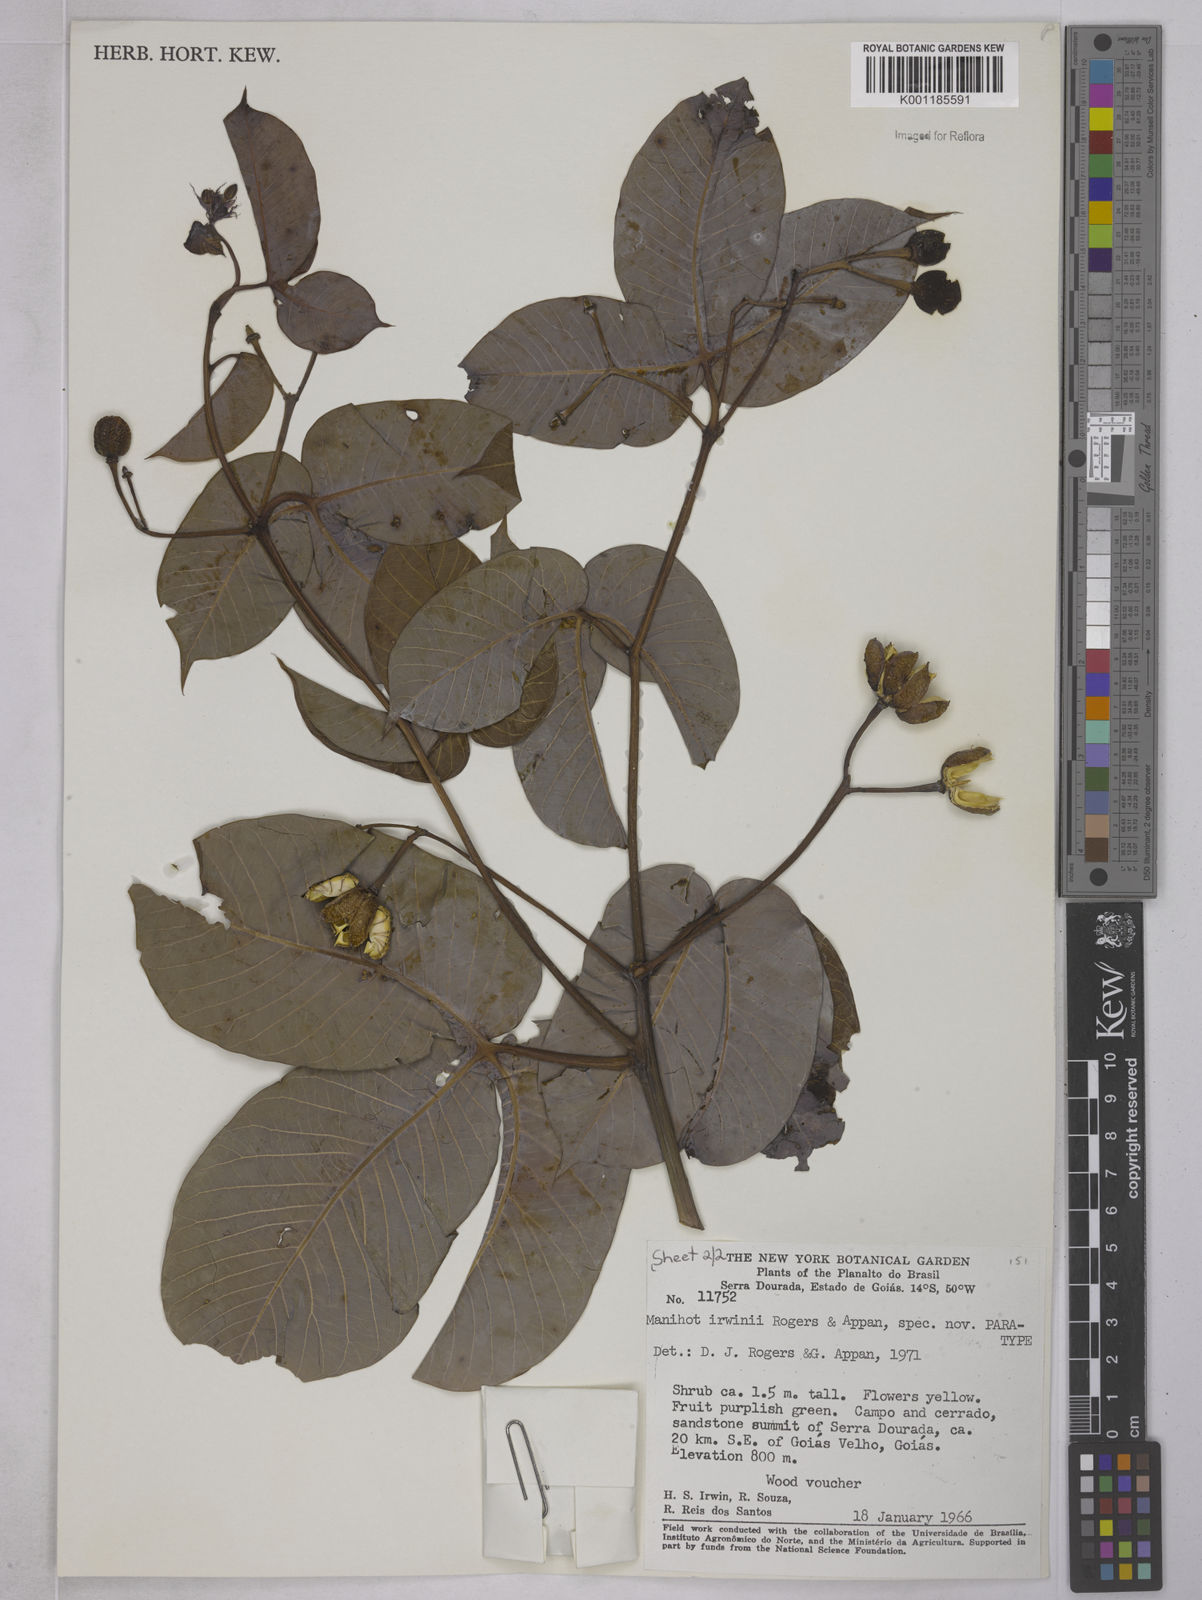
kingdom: Plantae
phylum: Tracheophyta
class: Magnoliopsida
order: Malpighiales
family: Euphorbiaceae
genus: Manihot
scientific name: Manihot irwinii
